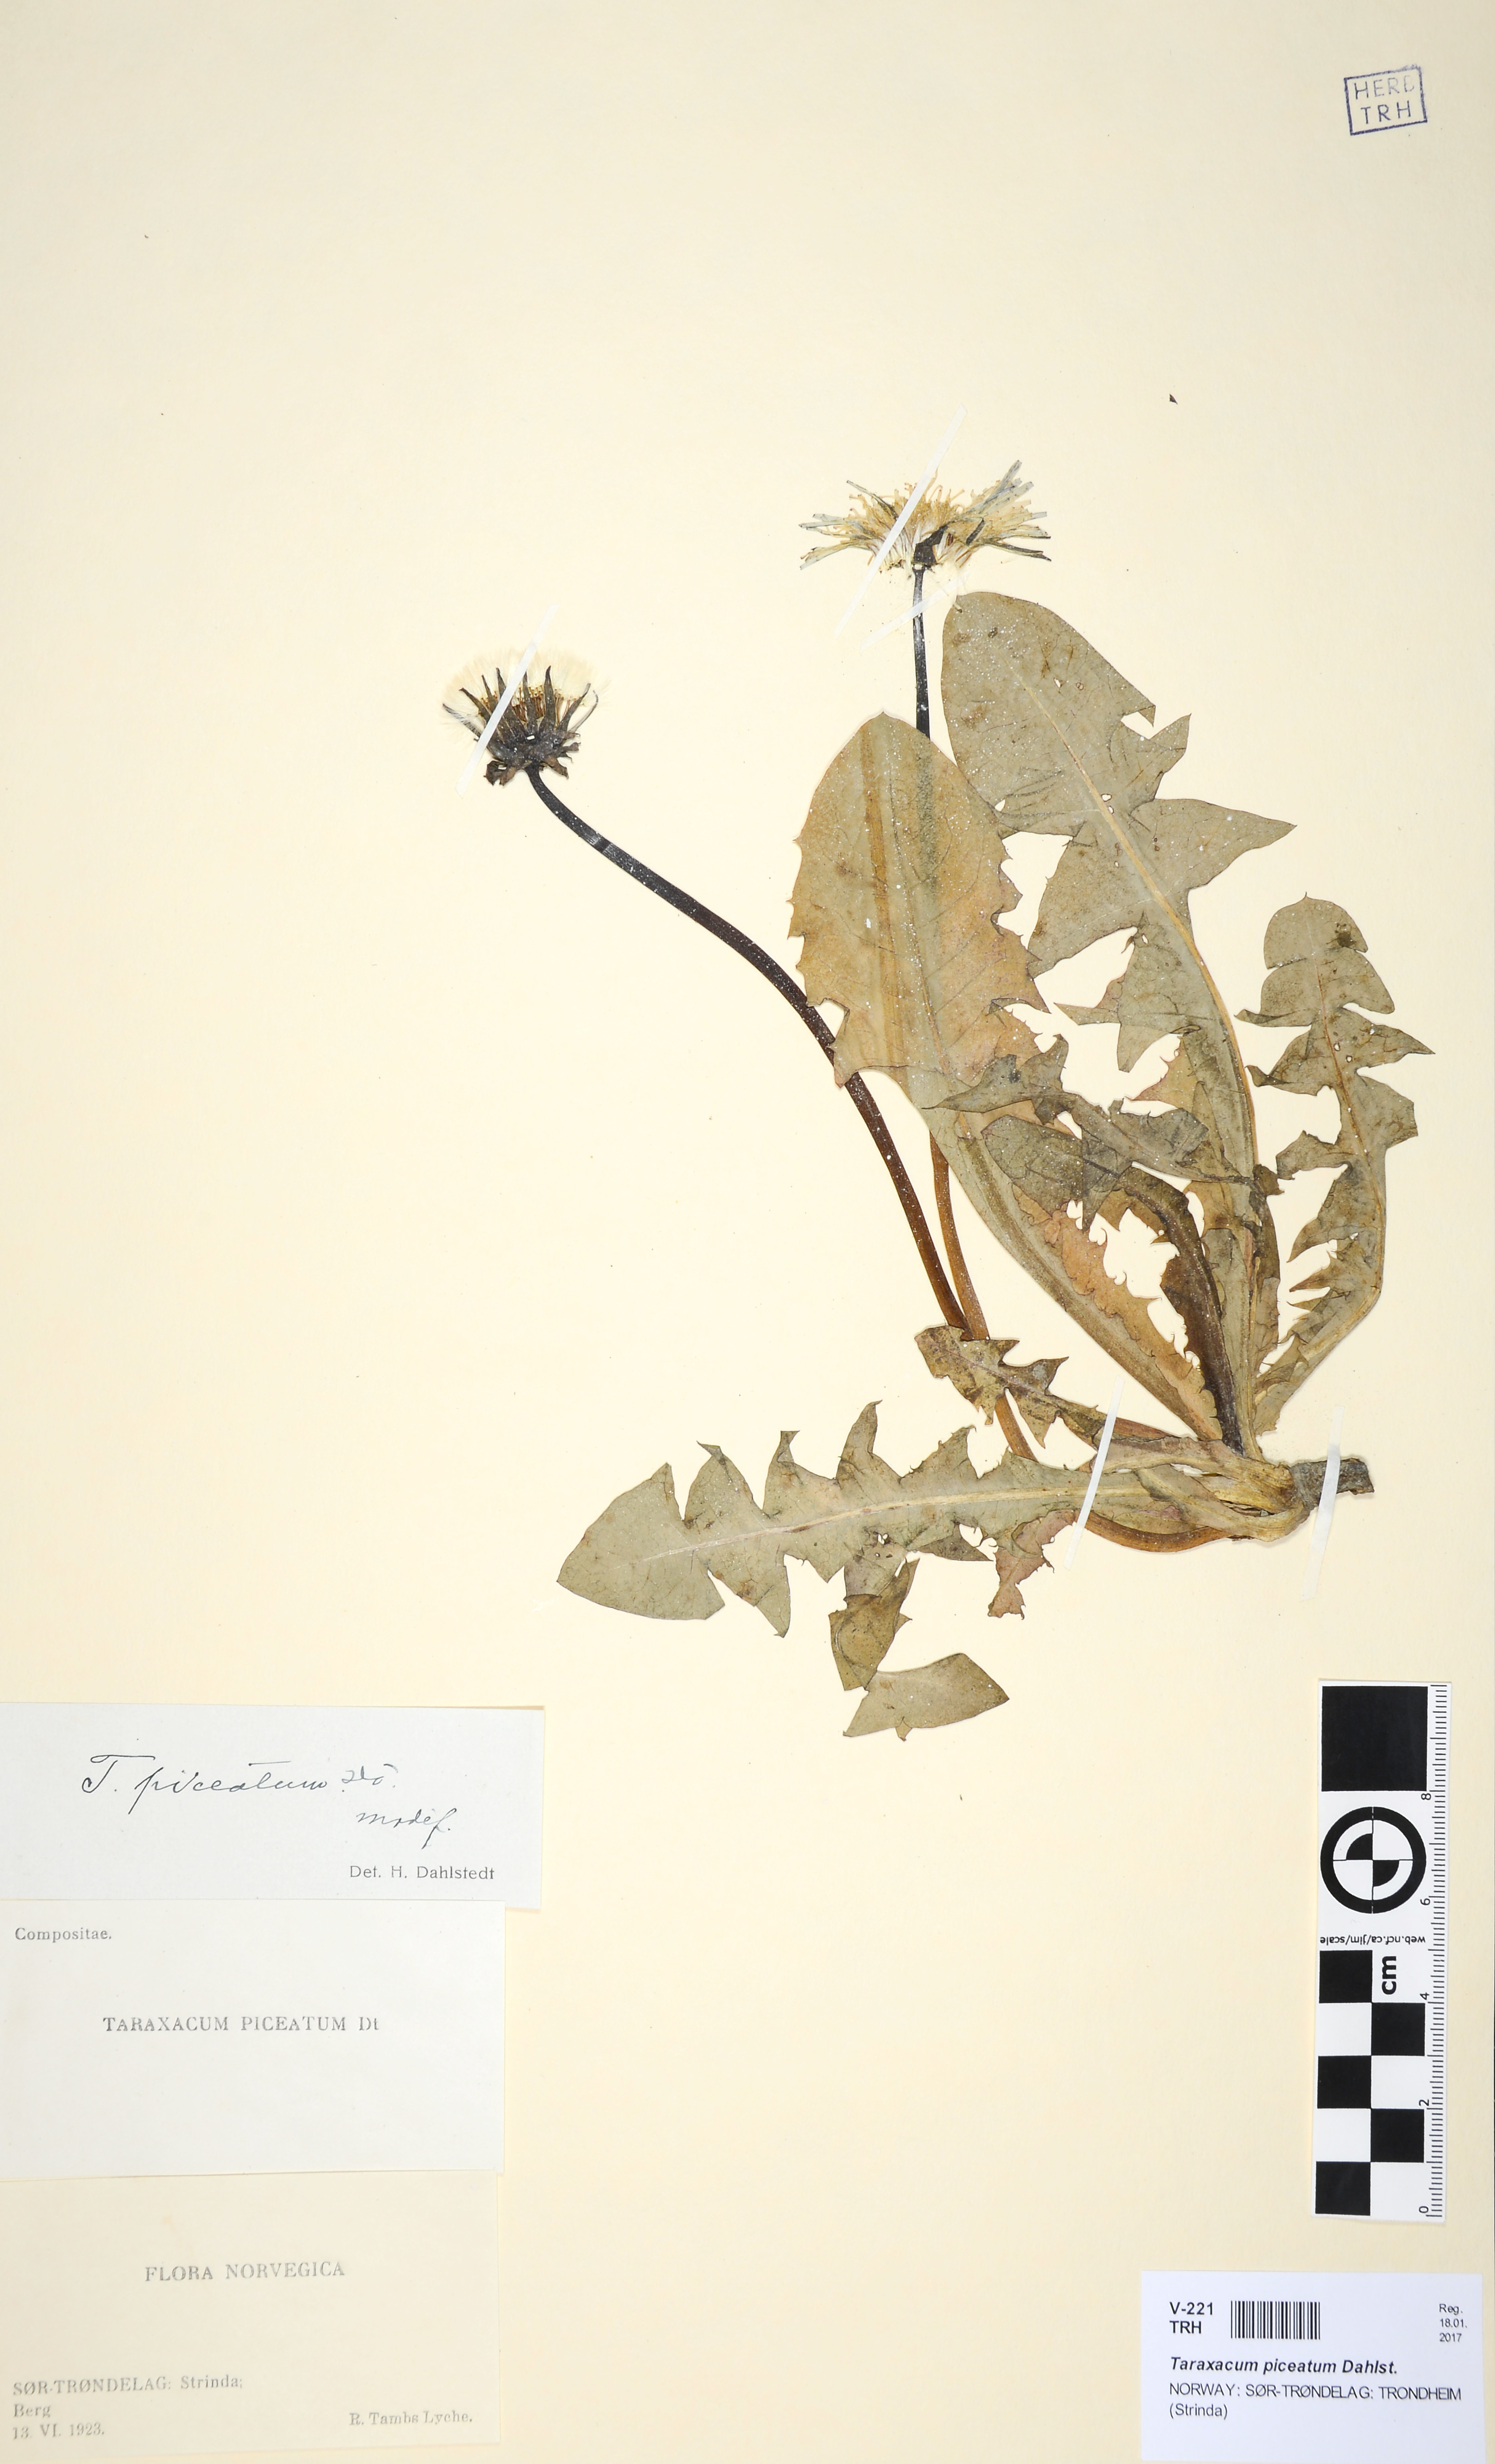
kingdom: Plantae
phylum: Tracheophyta
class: Magnoliopsida
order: Asterales
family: Asteraceae
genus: Taraxacum
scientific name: Taraxacum piceatum
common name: Leaden-bracted dandelion
